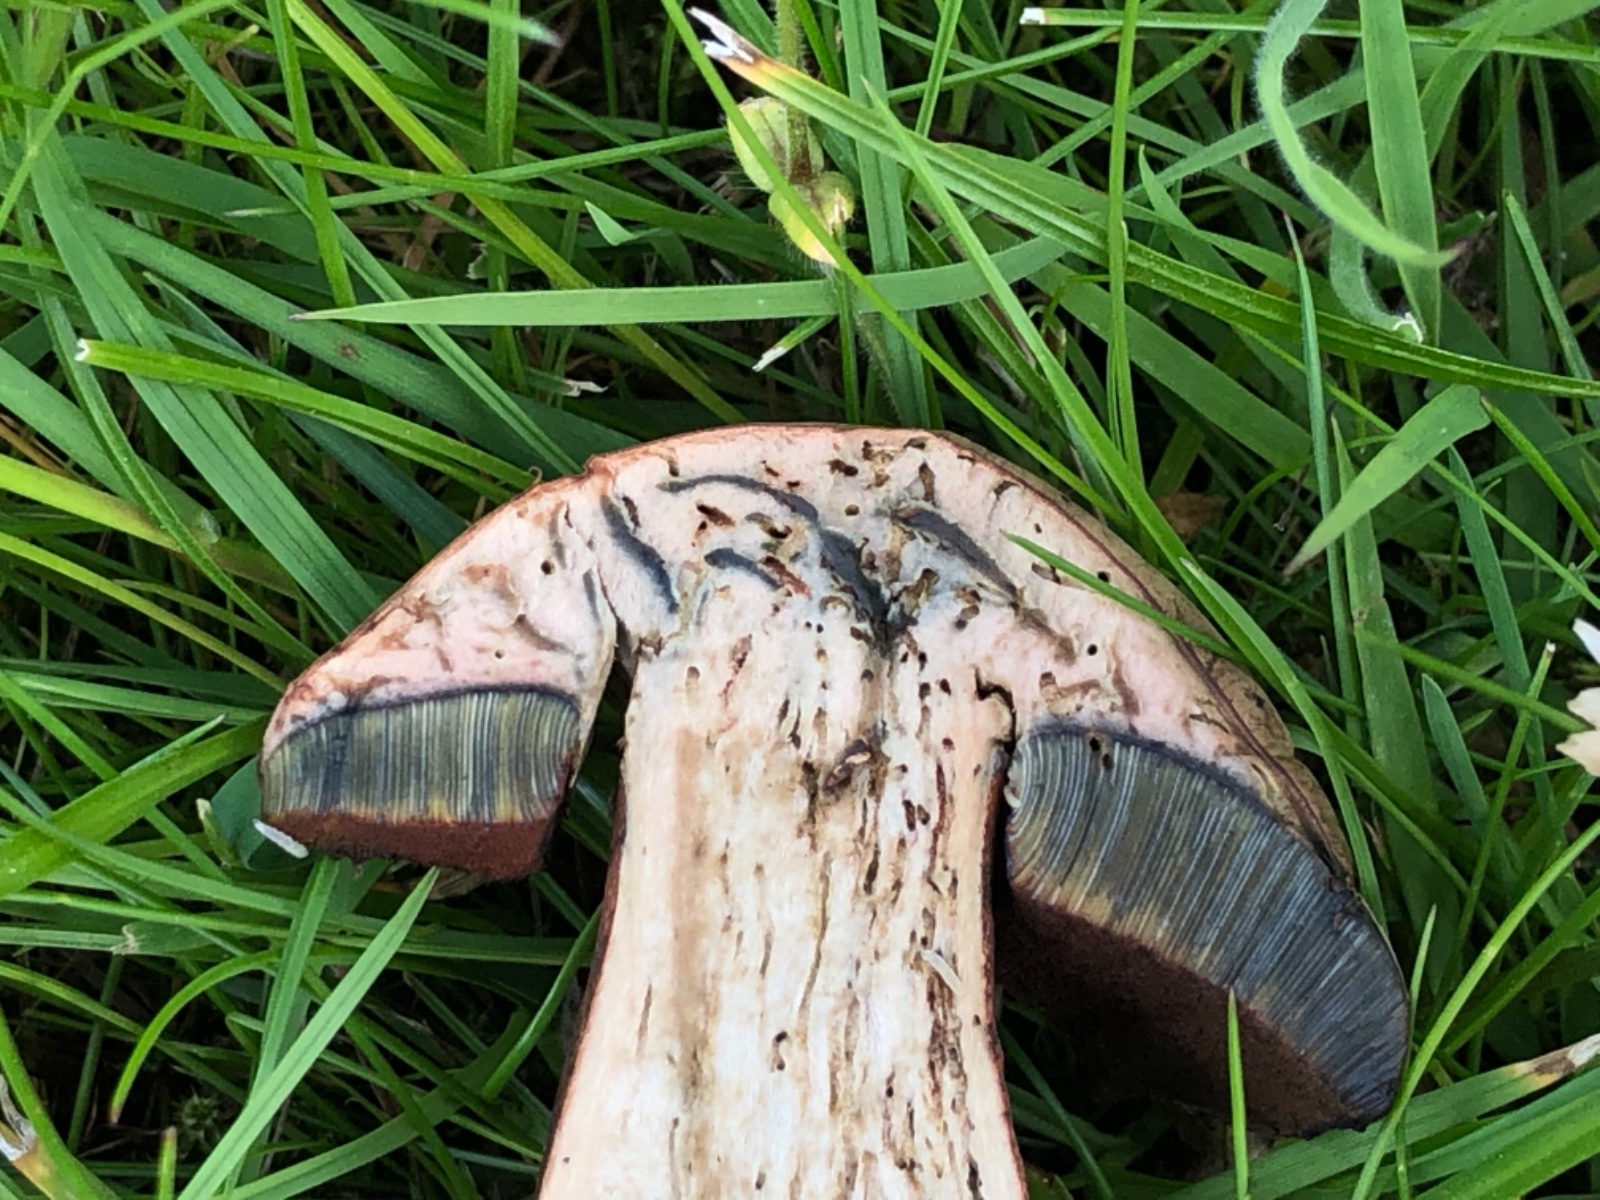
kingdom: Fungi
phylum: Basidiomycota
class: Agaricomycetes
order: Boletales
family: Boletaceae
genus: Suillellus
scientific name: Suillellus luridus
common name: netstokket indigorørhat
